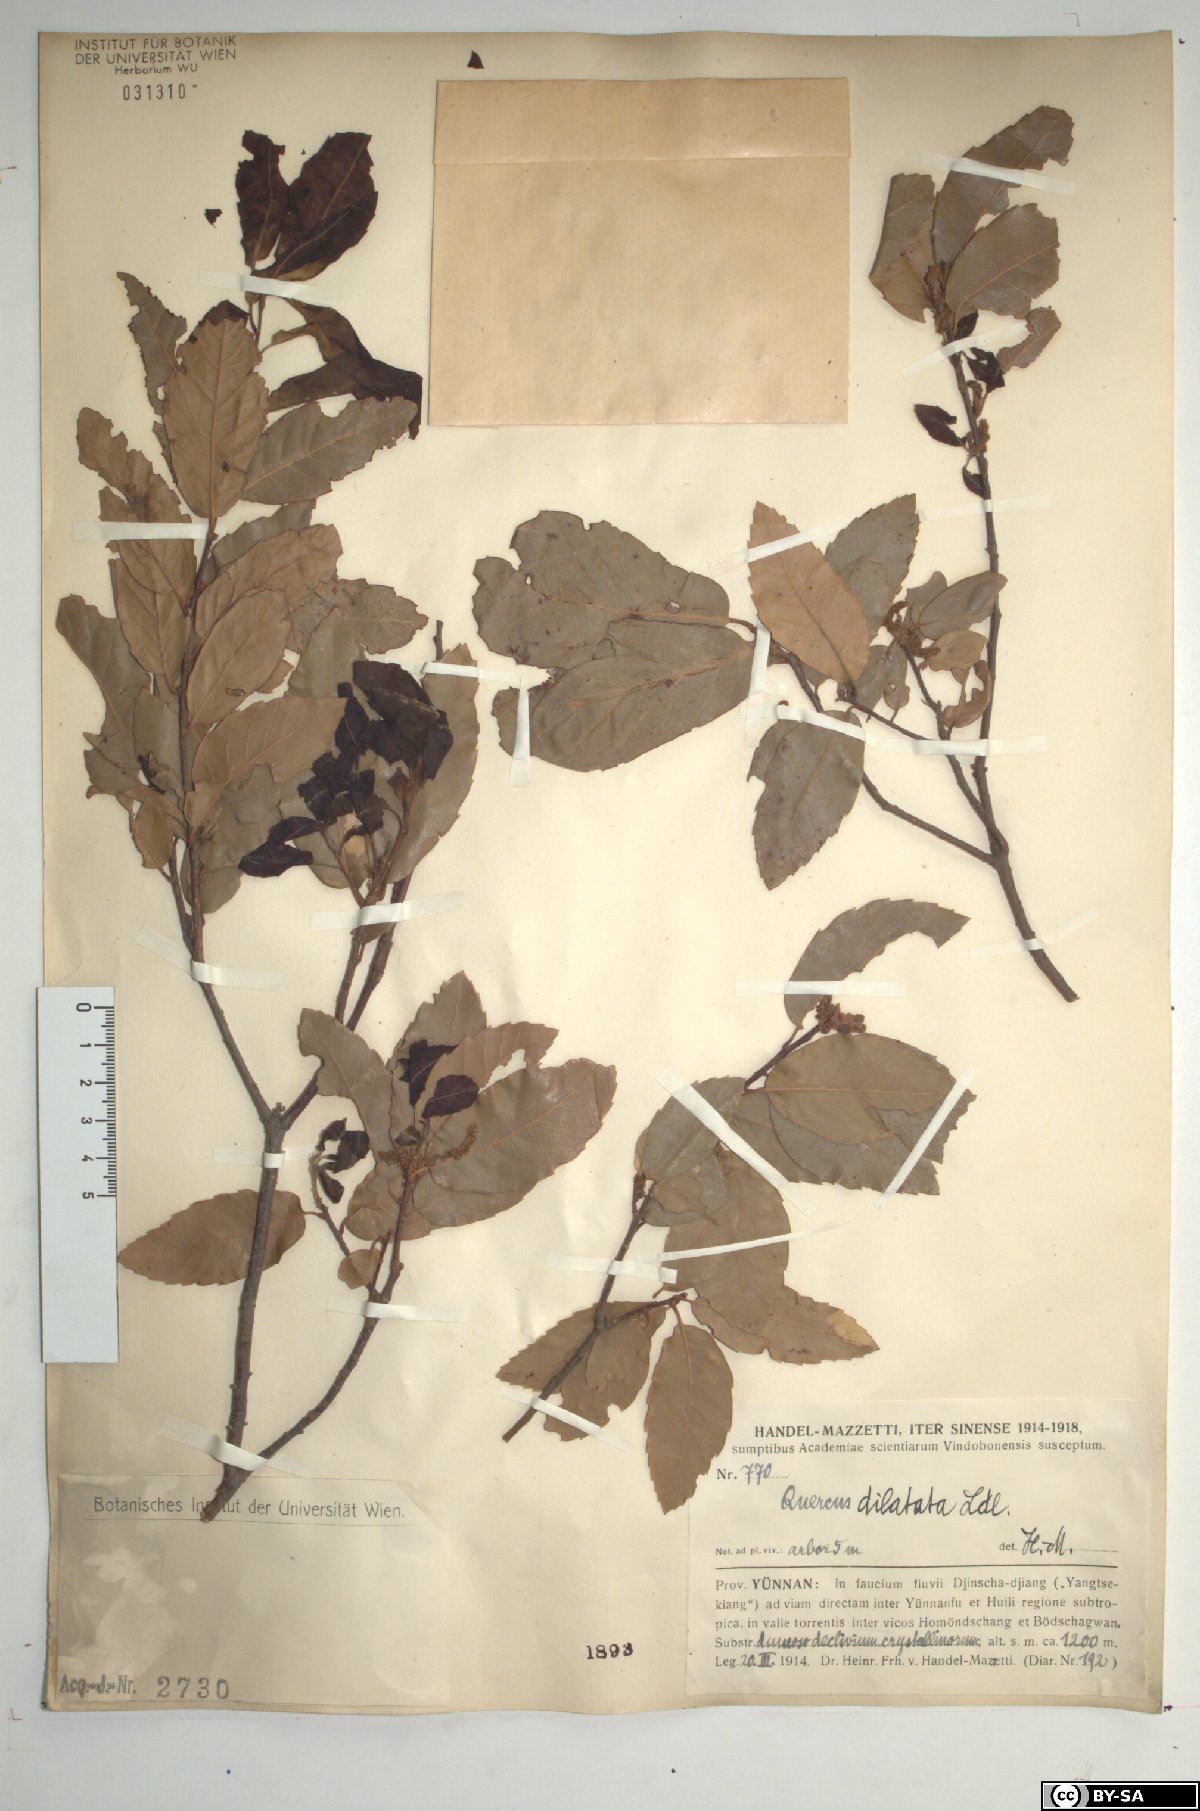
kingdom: Plantae
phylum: Tracheophyta
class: Magnoliopsida
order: Fagales
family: Fagaceae
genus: Quercus
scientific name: Quercus floribunda
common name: Moru
